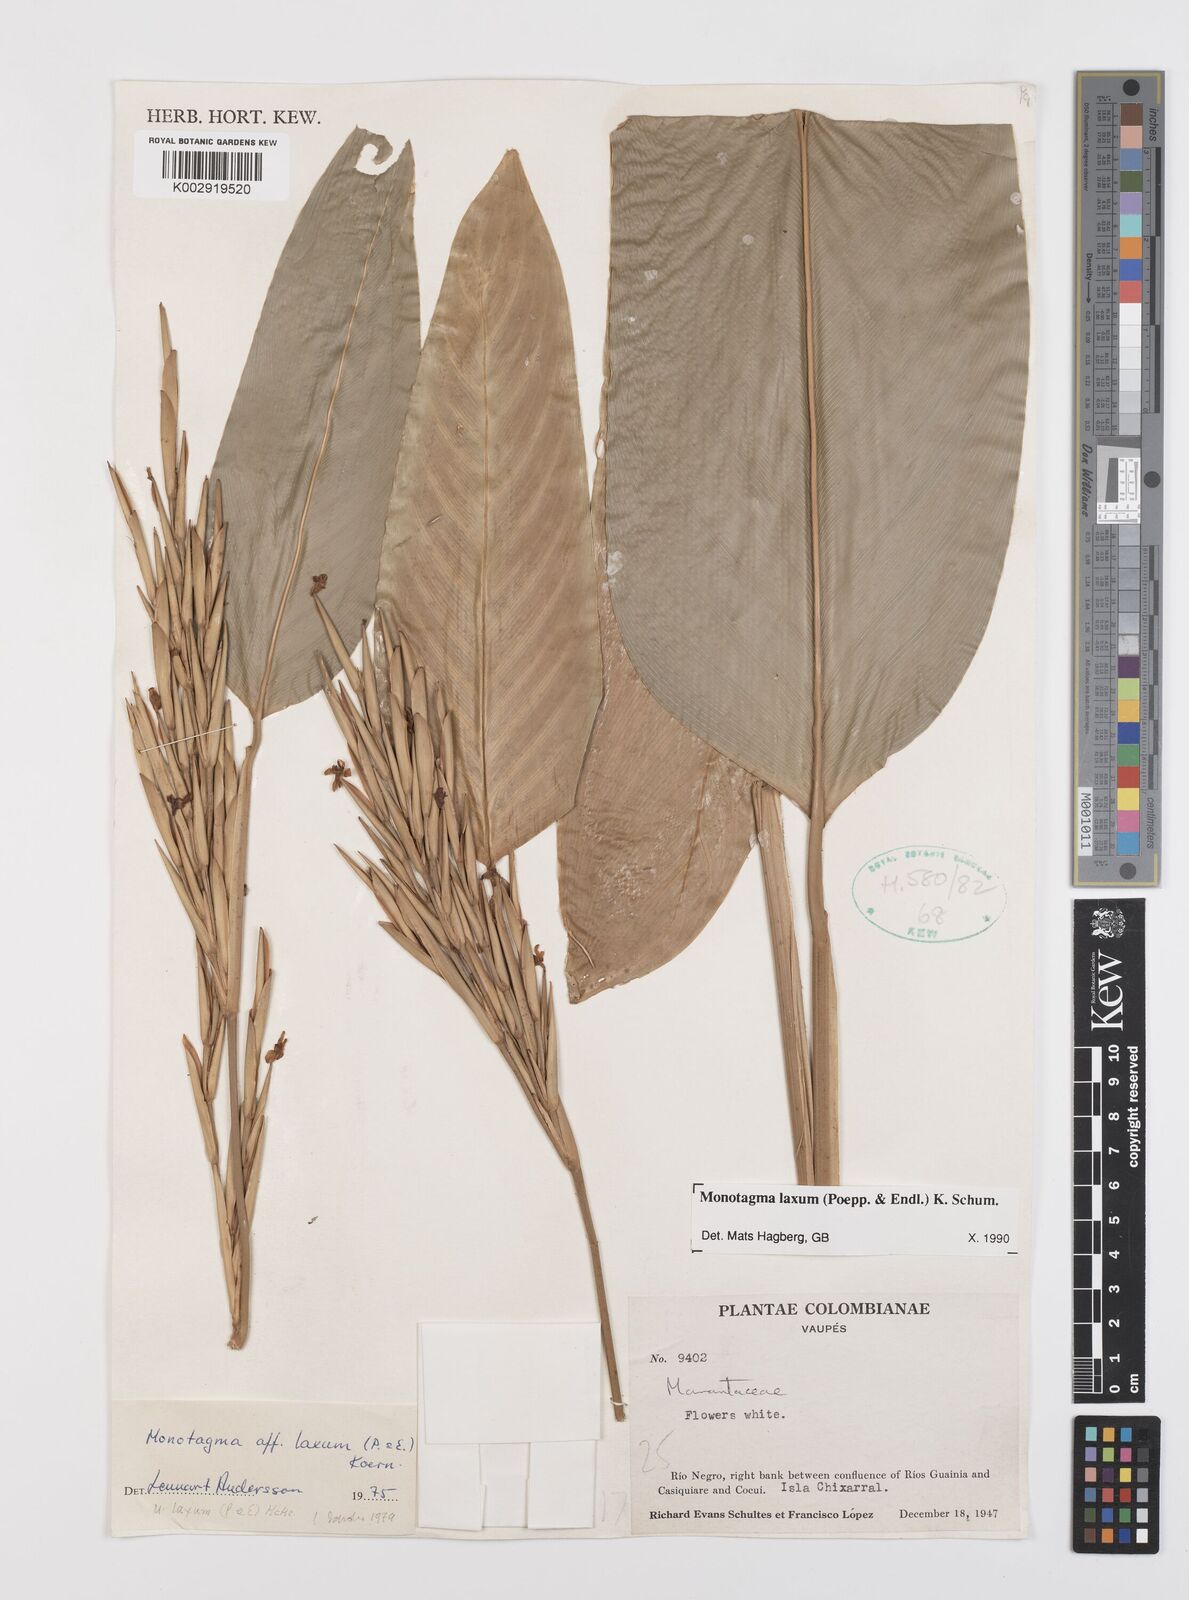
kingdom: Plantae
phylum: Tracheophyta
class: Liliopsida
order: Zingiberales
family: Marantaceae
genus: Monotagma
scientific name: Monotagma laxum
